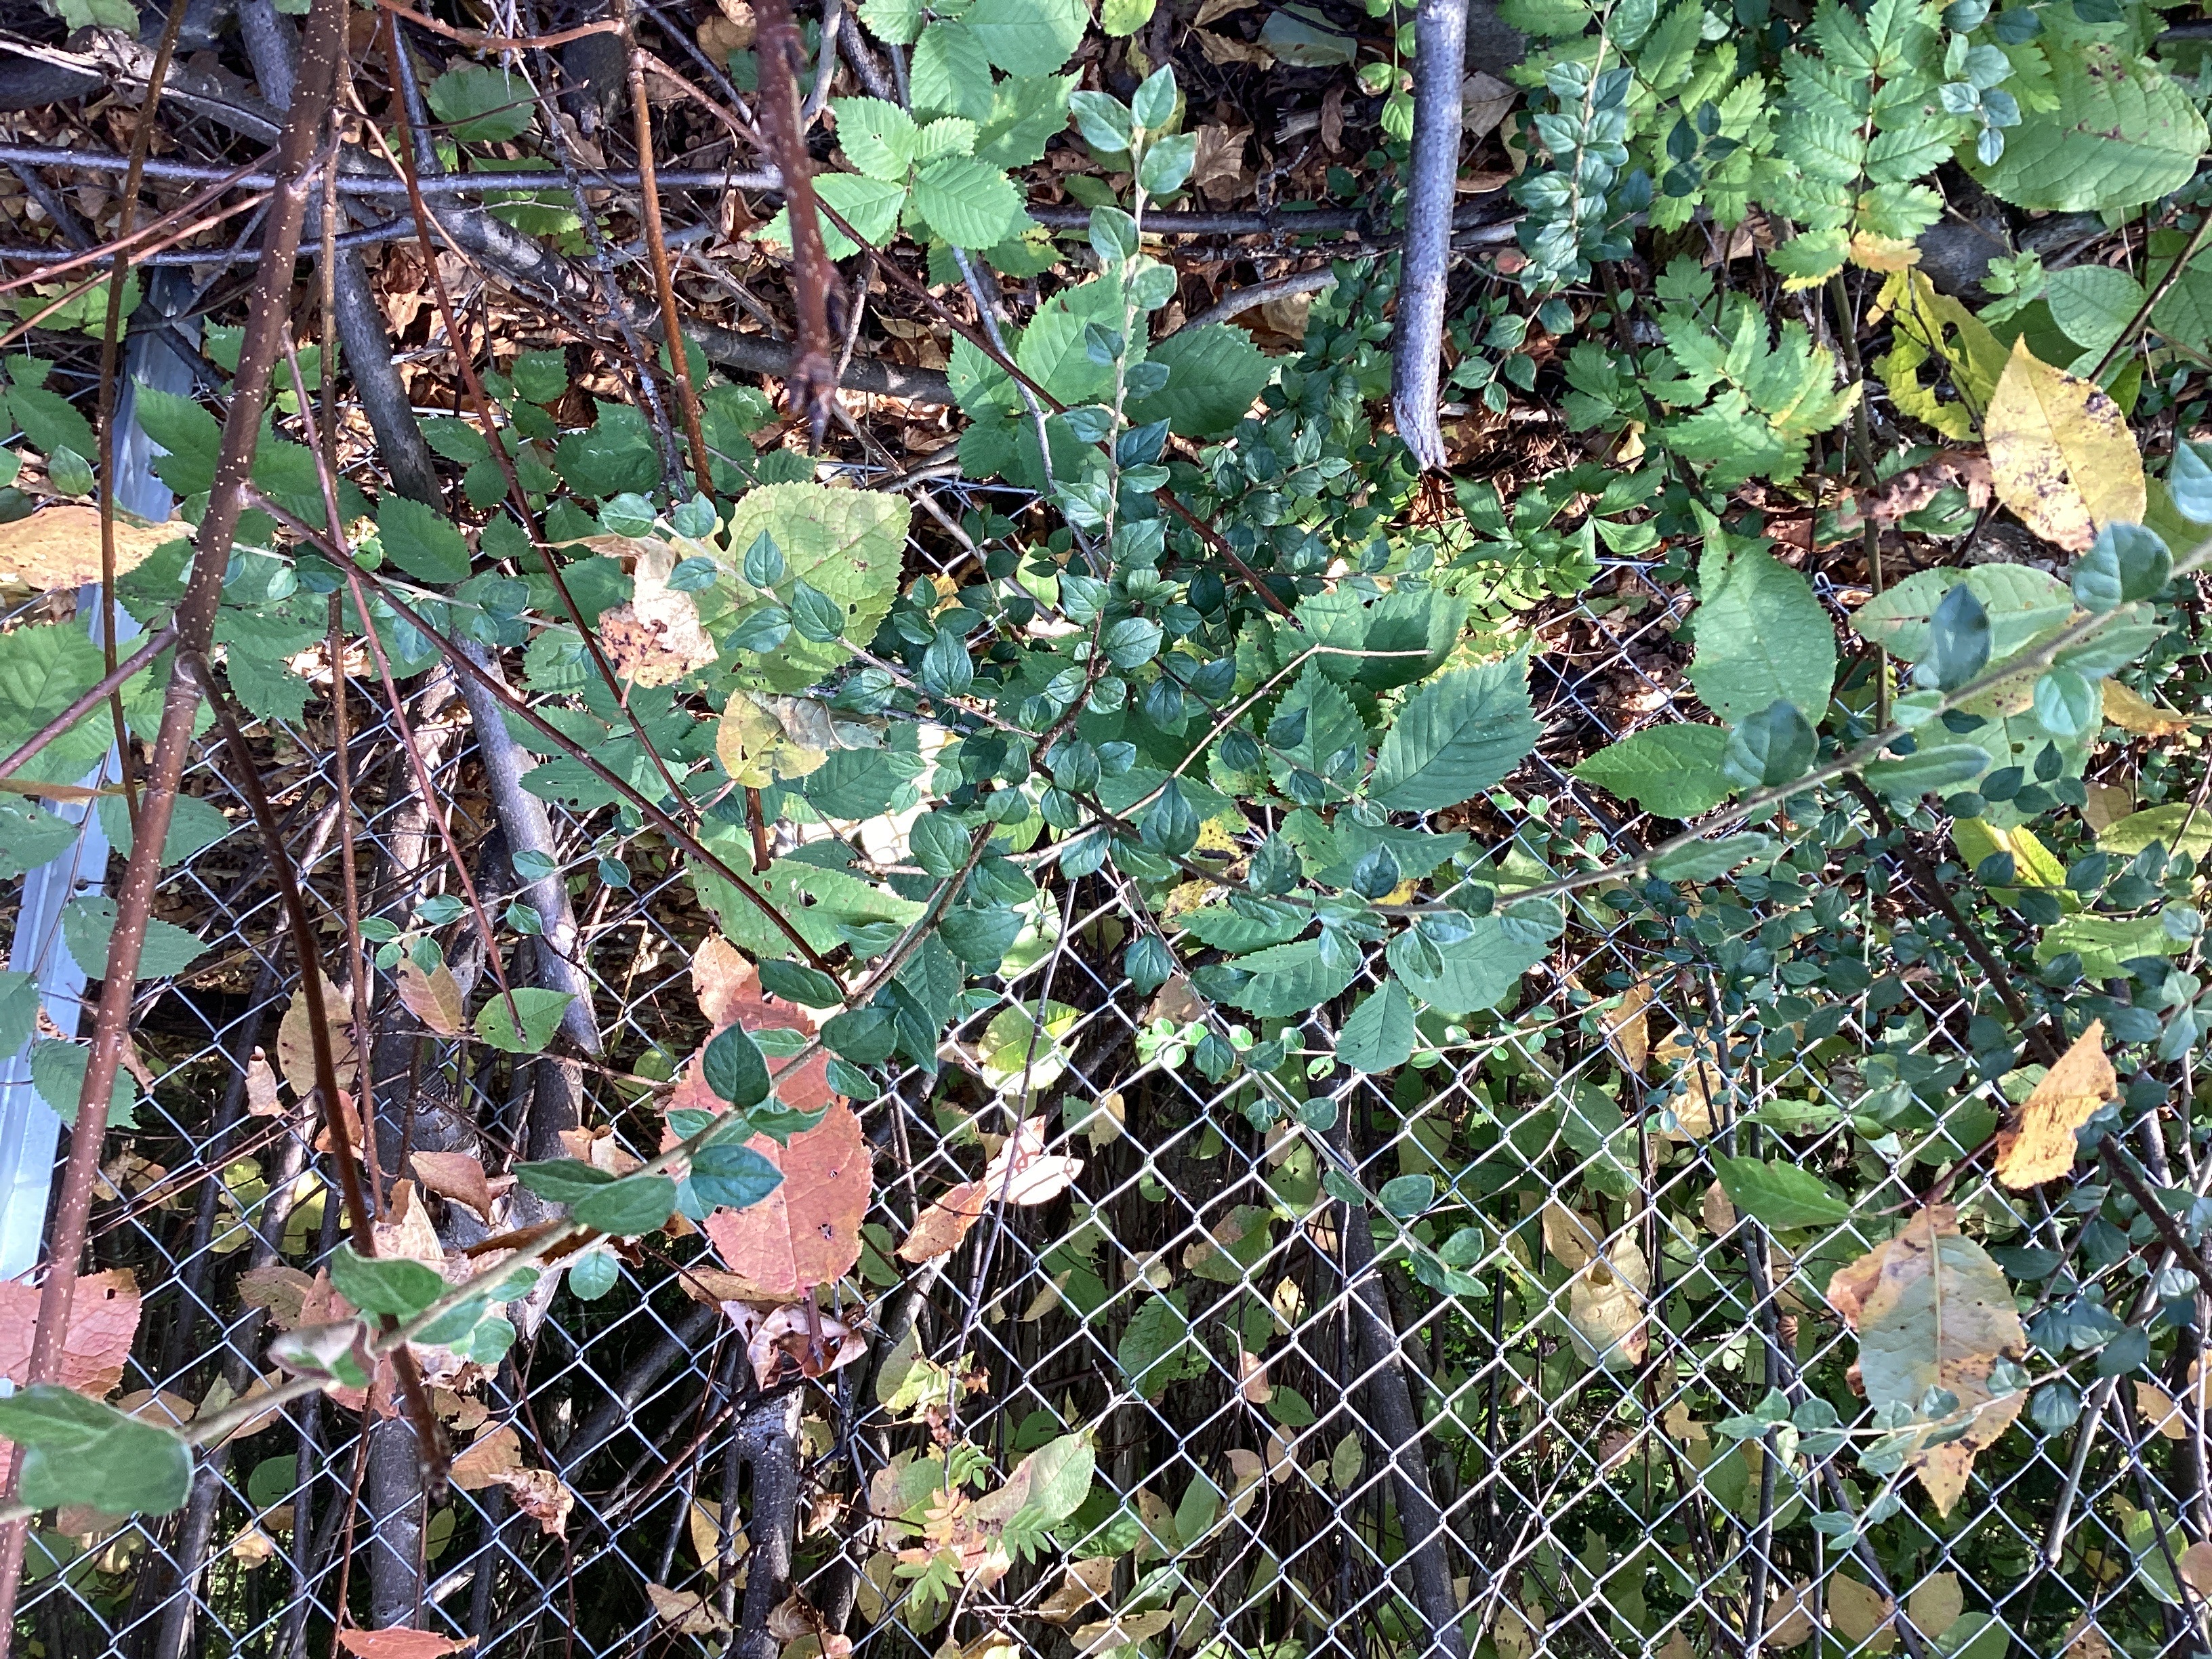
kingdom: Plantae
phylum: Tracheophyta
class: Magnoliopsida
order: Rosales
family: Rosaceae
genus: Cotoneaster
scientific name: Cotoneaster dielsianus
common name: dielsmispel
